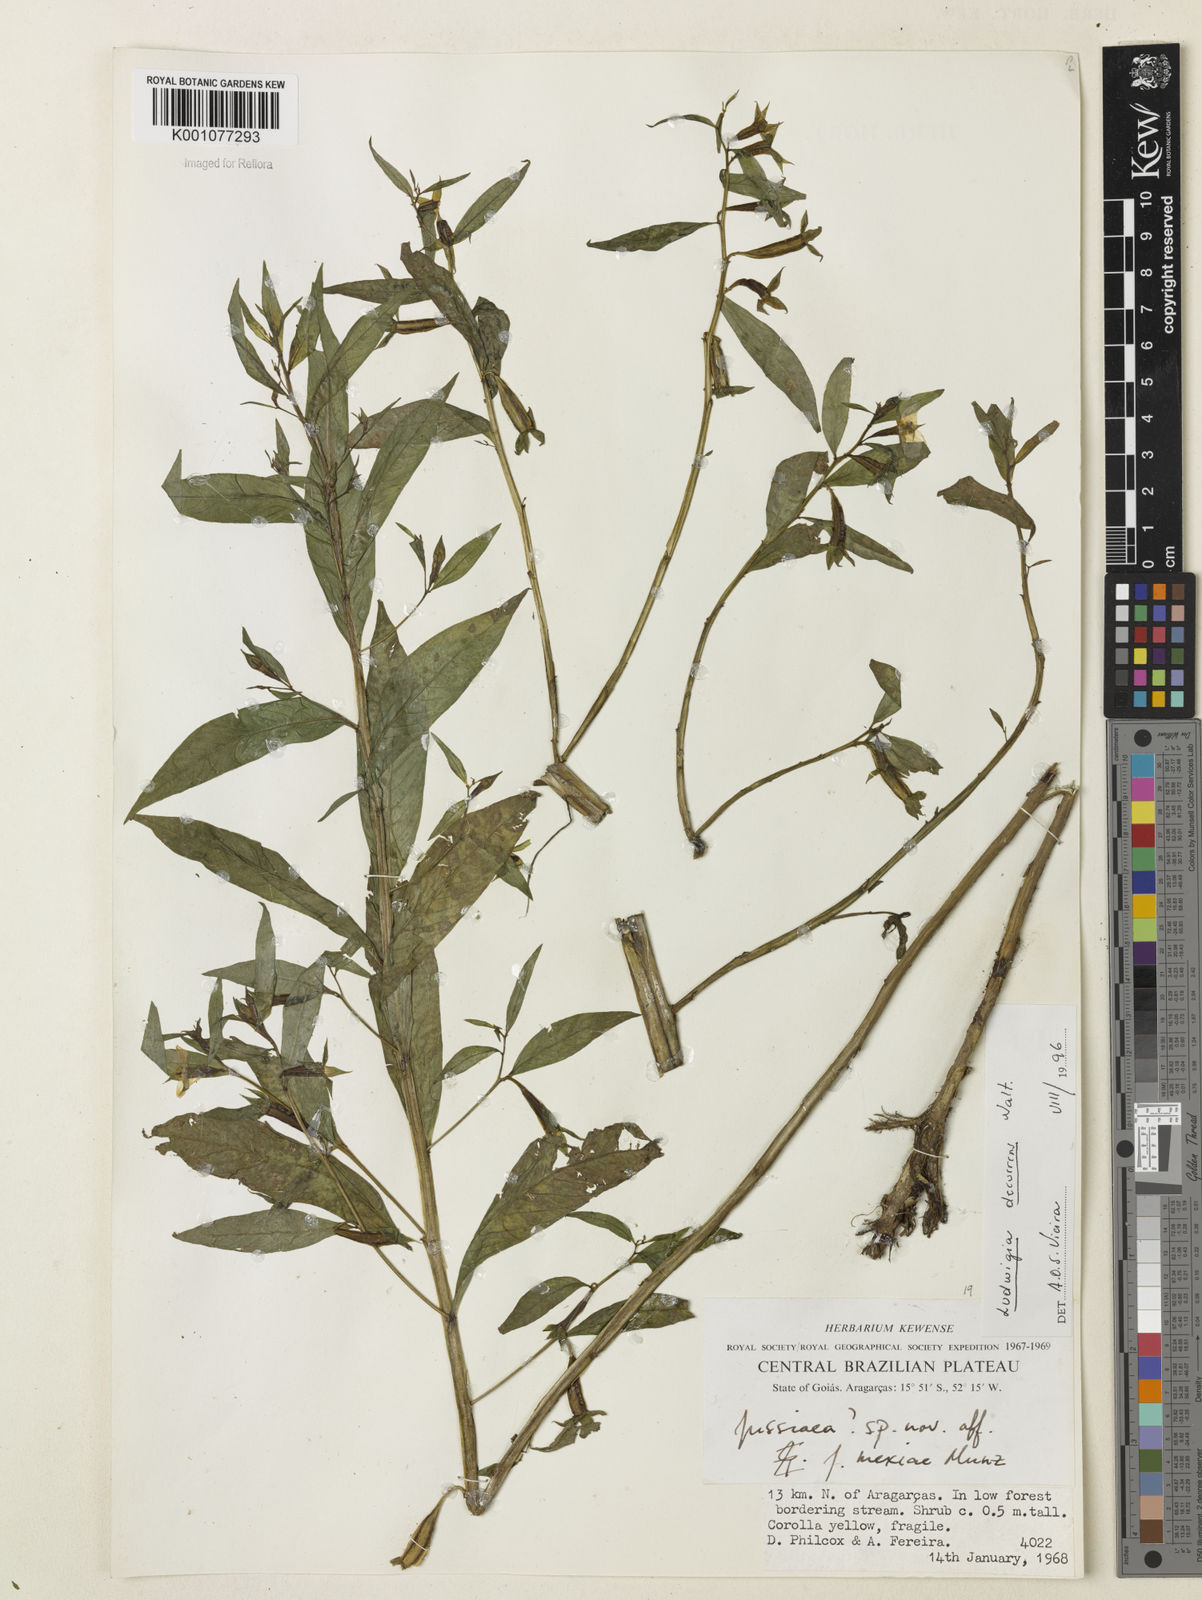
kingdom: Plantae
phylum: Tracheophyta
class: Magnoliopsida
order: Myrtales
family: Onagraceae
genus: Ludwigia
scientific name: Ludwigia decurrens
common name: Winged water-primrose
